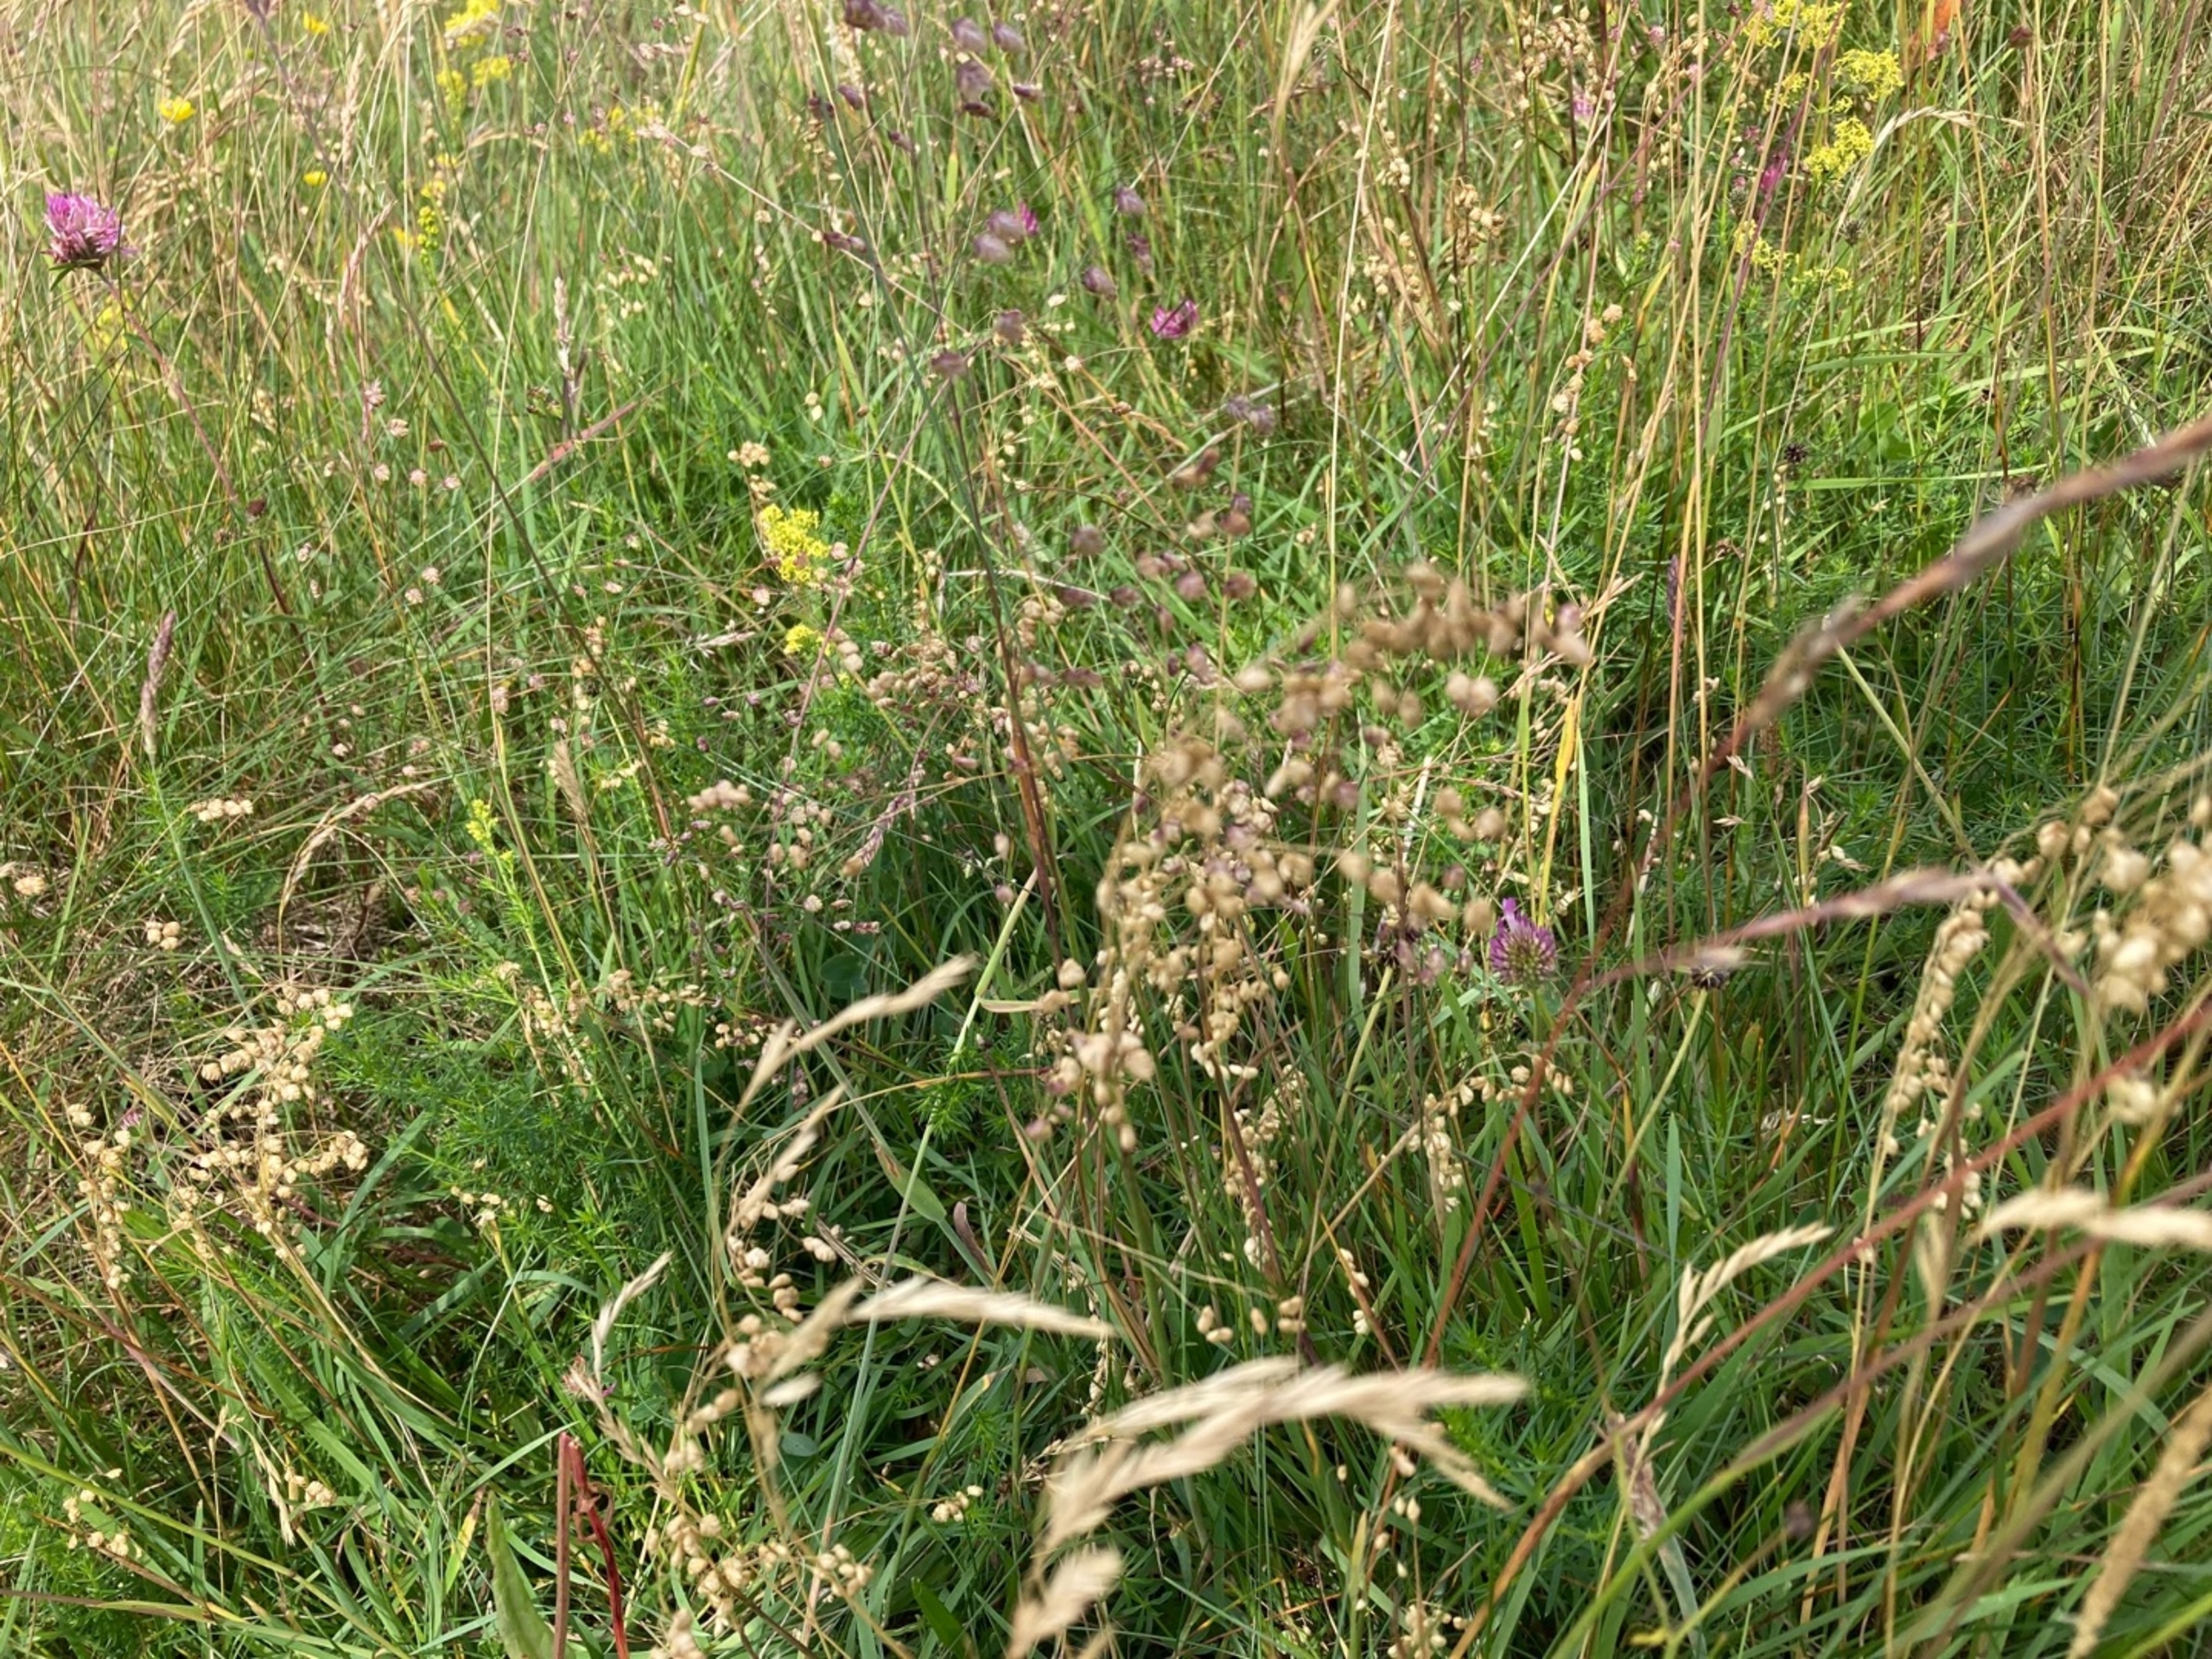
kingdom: Plantae
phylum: Tracheophyta
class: Liliopsida
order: Poales
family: Poaceae
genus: Briza
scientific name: Briza media
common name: Hjertegræs
